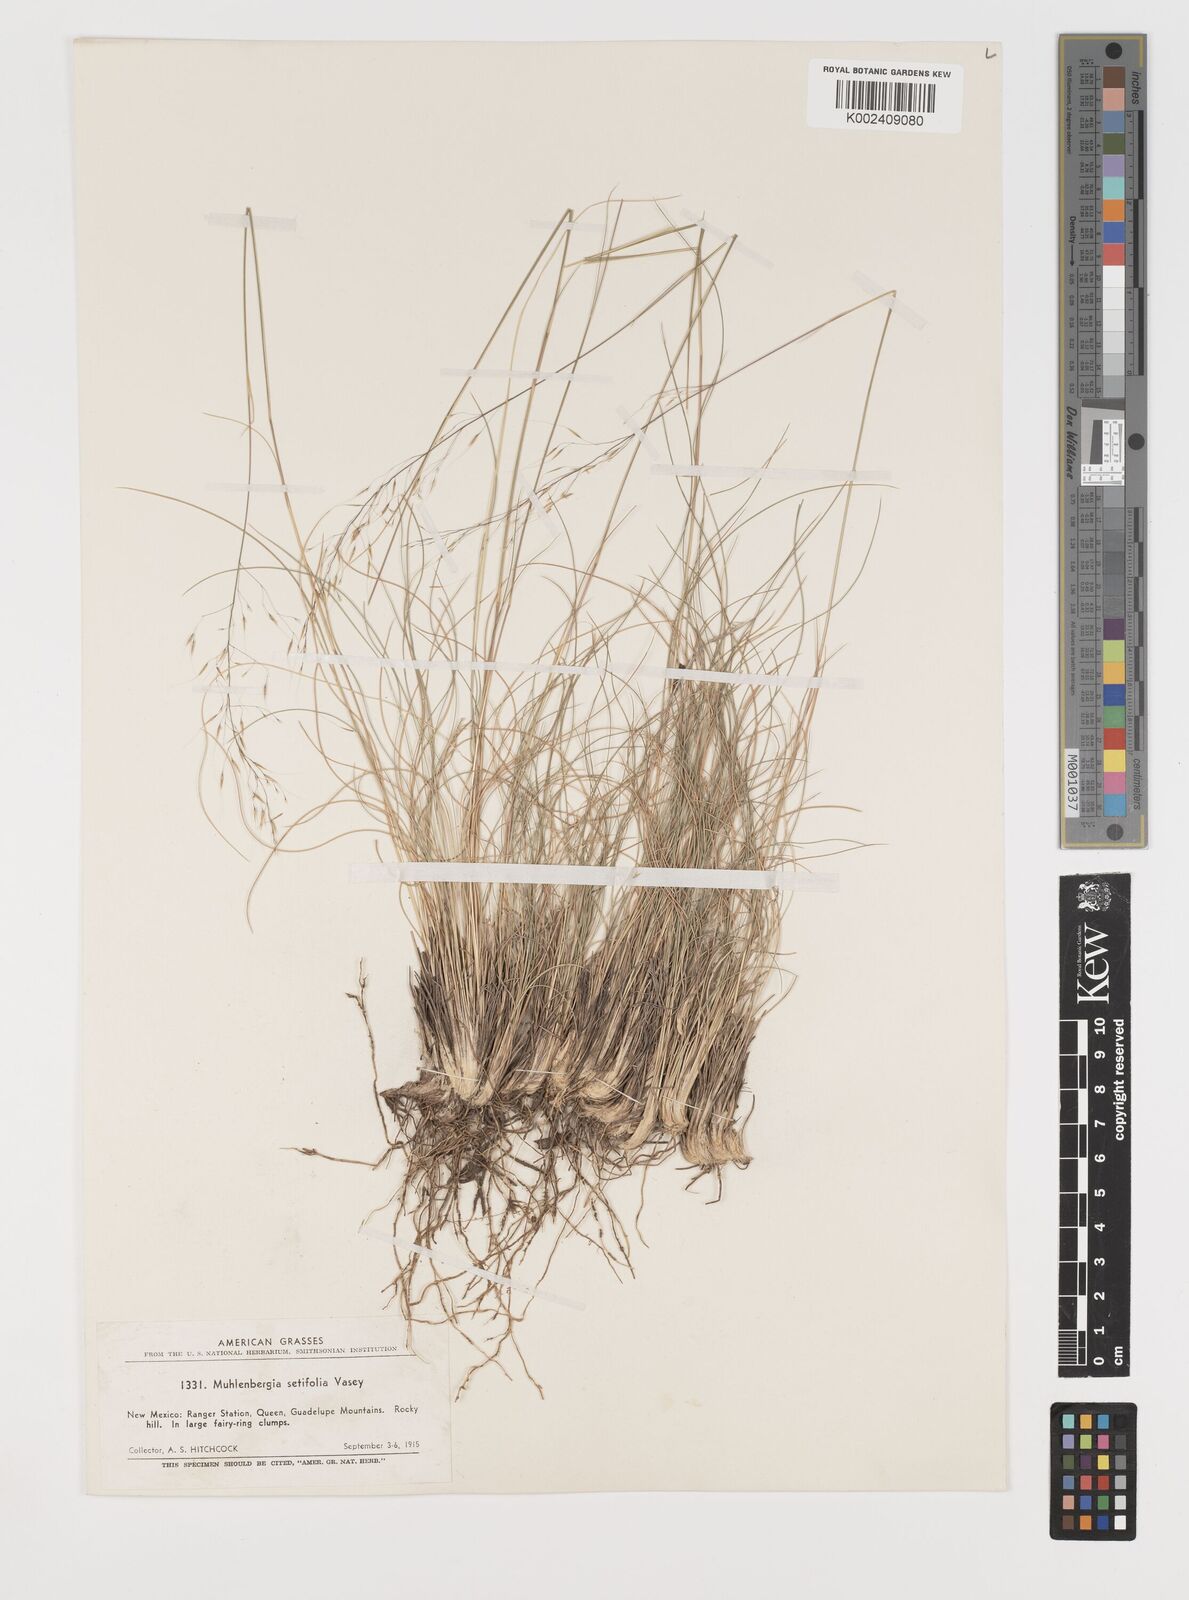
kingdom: Plantae
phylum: Tracheophyta
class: Liliopsida
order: Poales
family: Poaceae
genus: Muhlenbergia
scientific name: Muhlenbergia setifolia
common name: Curly-leaf muhly
